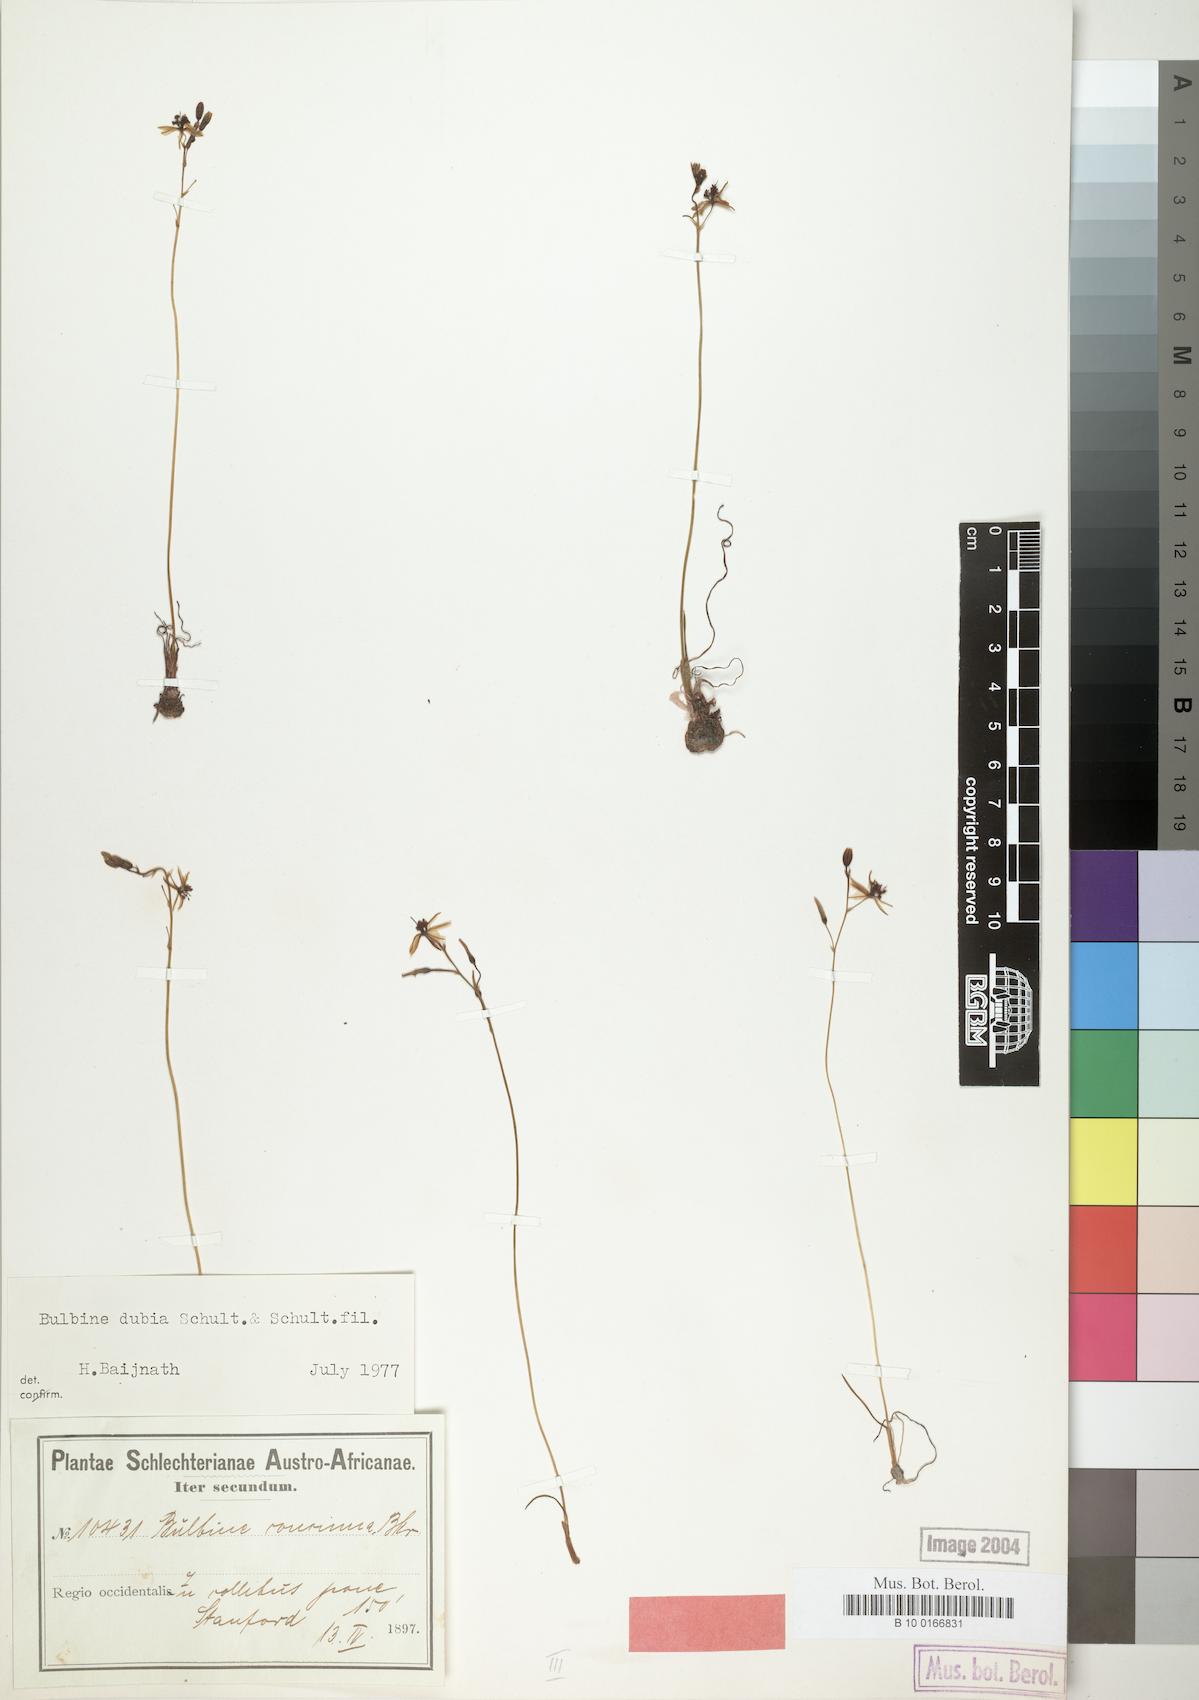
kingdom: Plantae
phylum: Tracheophyta
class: Liliopsida
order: Asparagales
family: Asphodelaceae
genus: Bulbine
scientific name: Bulbine favosa
